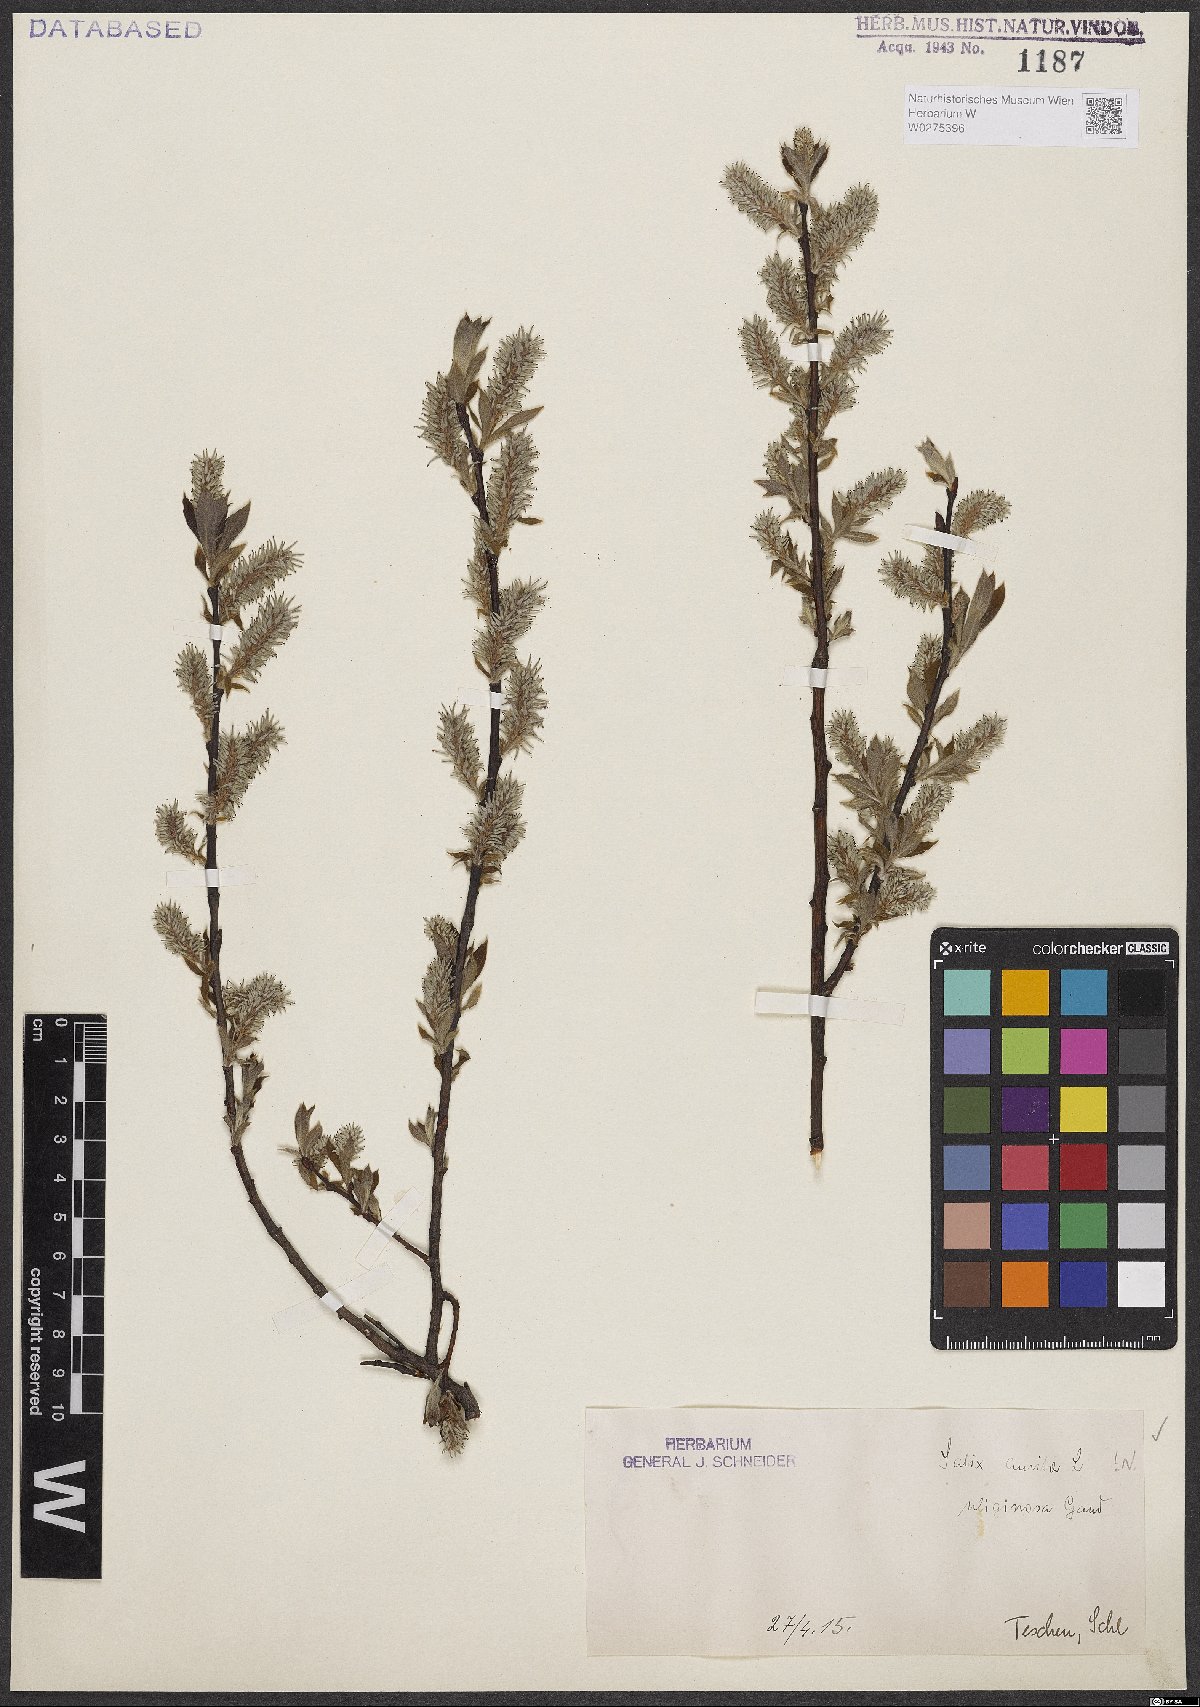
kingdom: Plantae
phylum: Tracheophyta
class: Magnoliopsida
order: Malpighiales
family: Salicaceae
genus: Salix
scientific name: Salix aurita
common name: Eared willow
